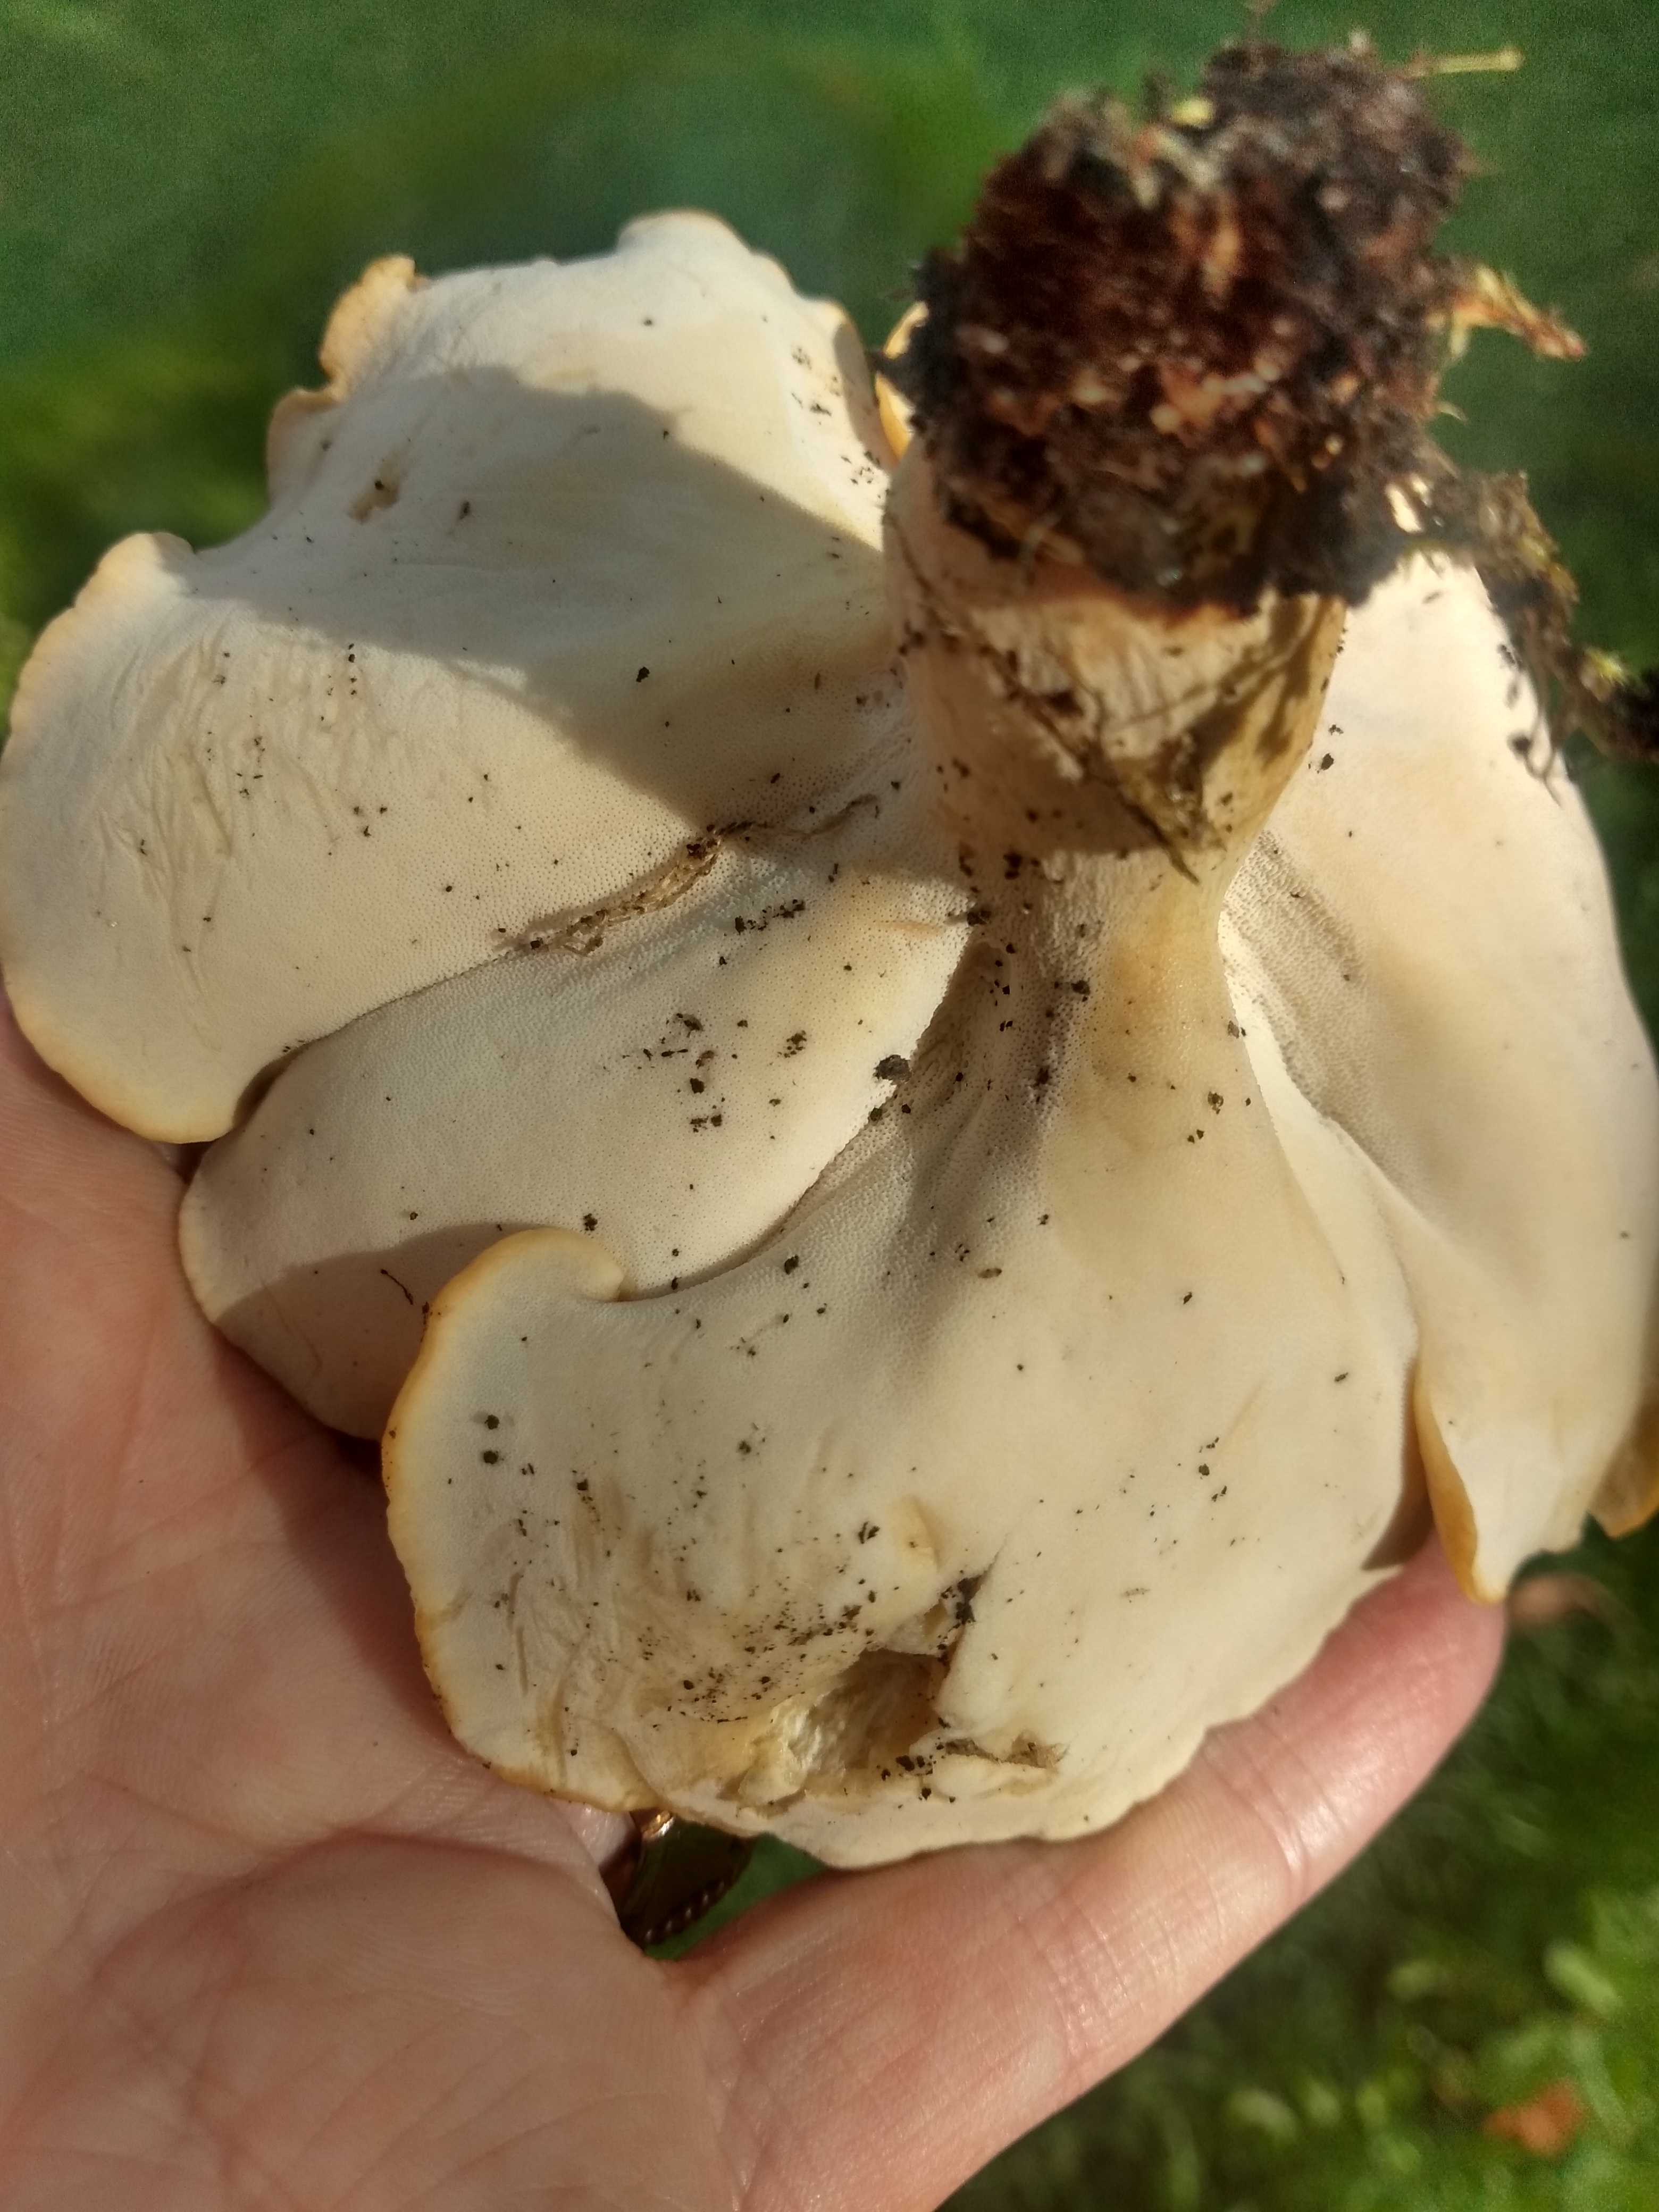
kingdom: Fungi
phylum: Basidiomycota
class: Agaricomycetes
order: Polyporales
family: Polyporaceae
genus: Cerioporus
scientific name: Cerioporus varius
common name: foranderlig stilkporesvamp
